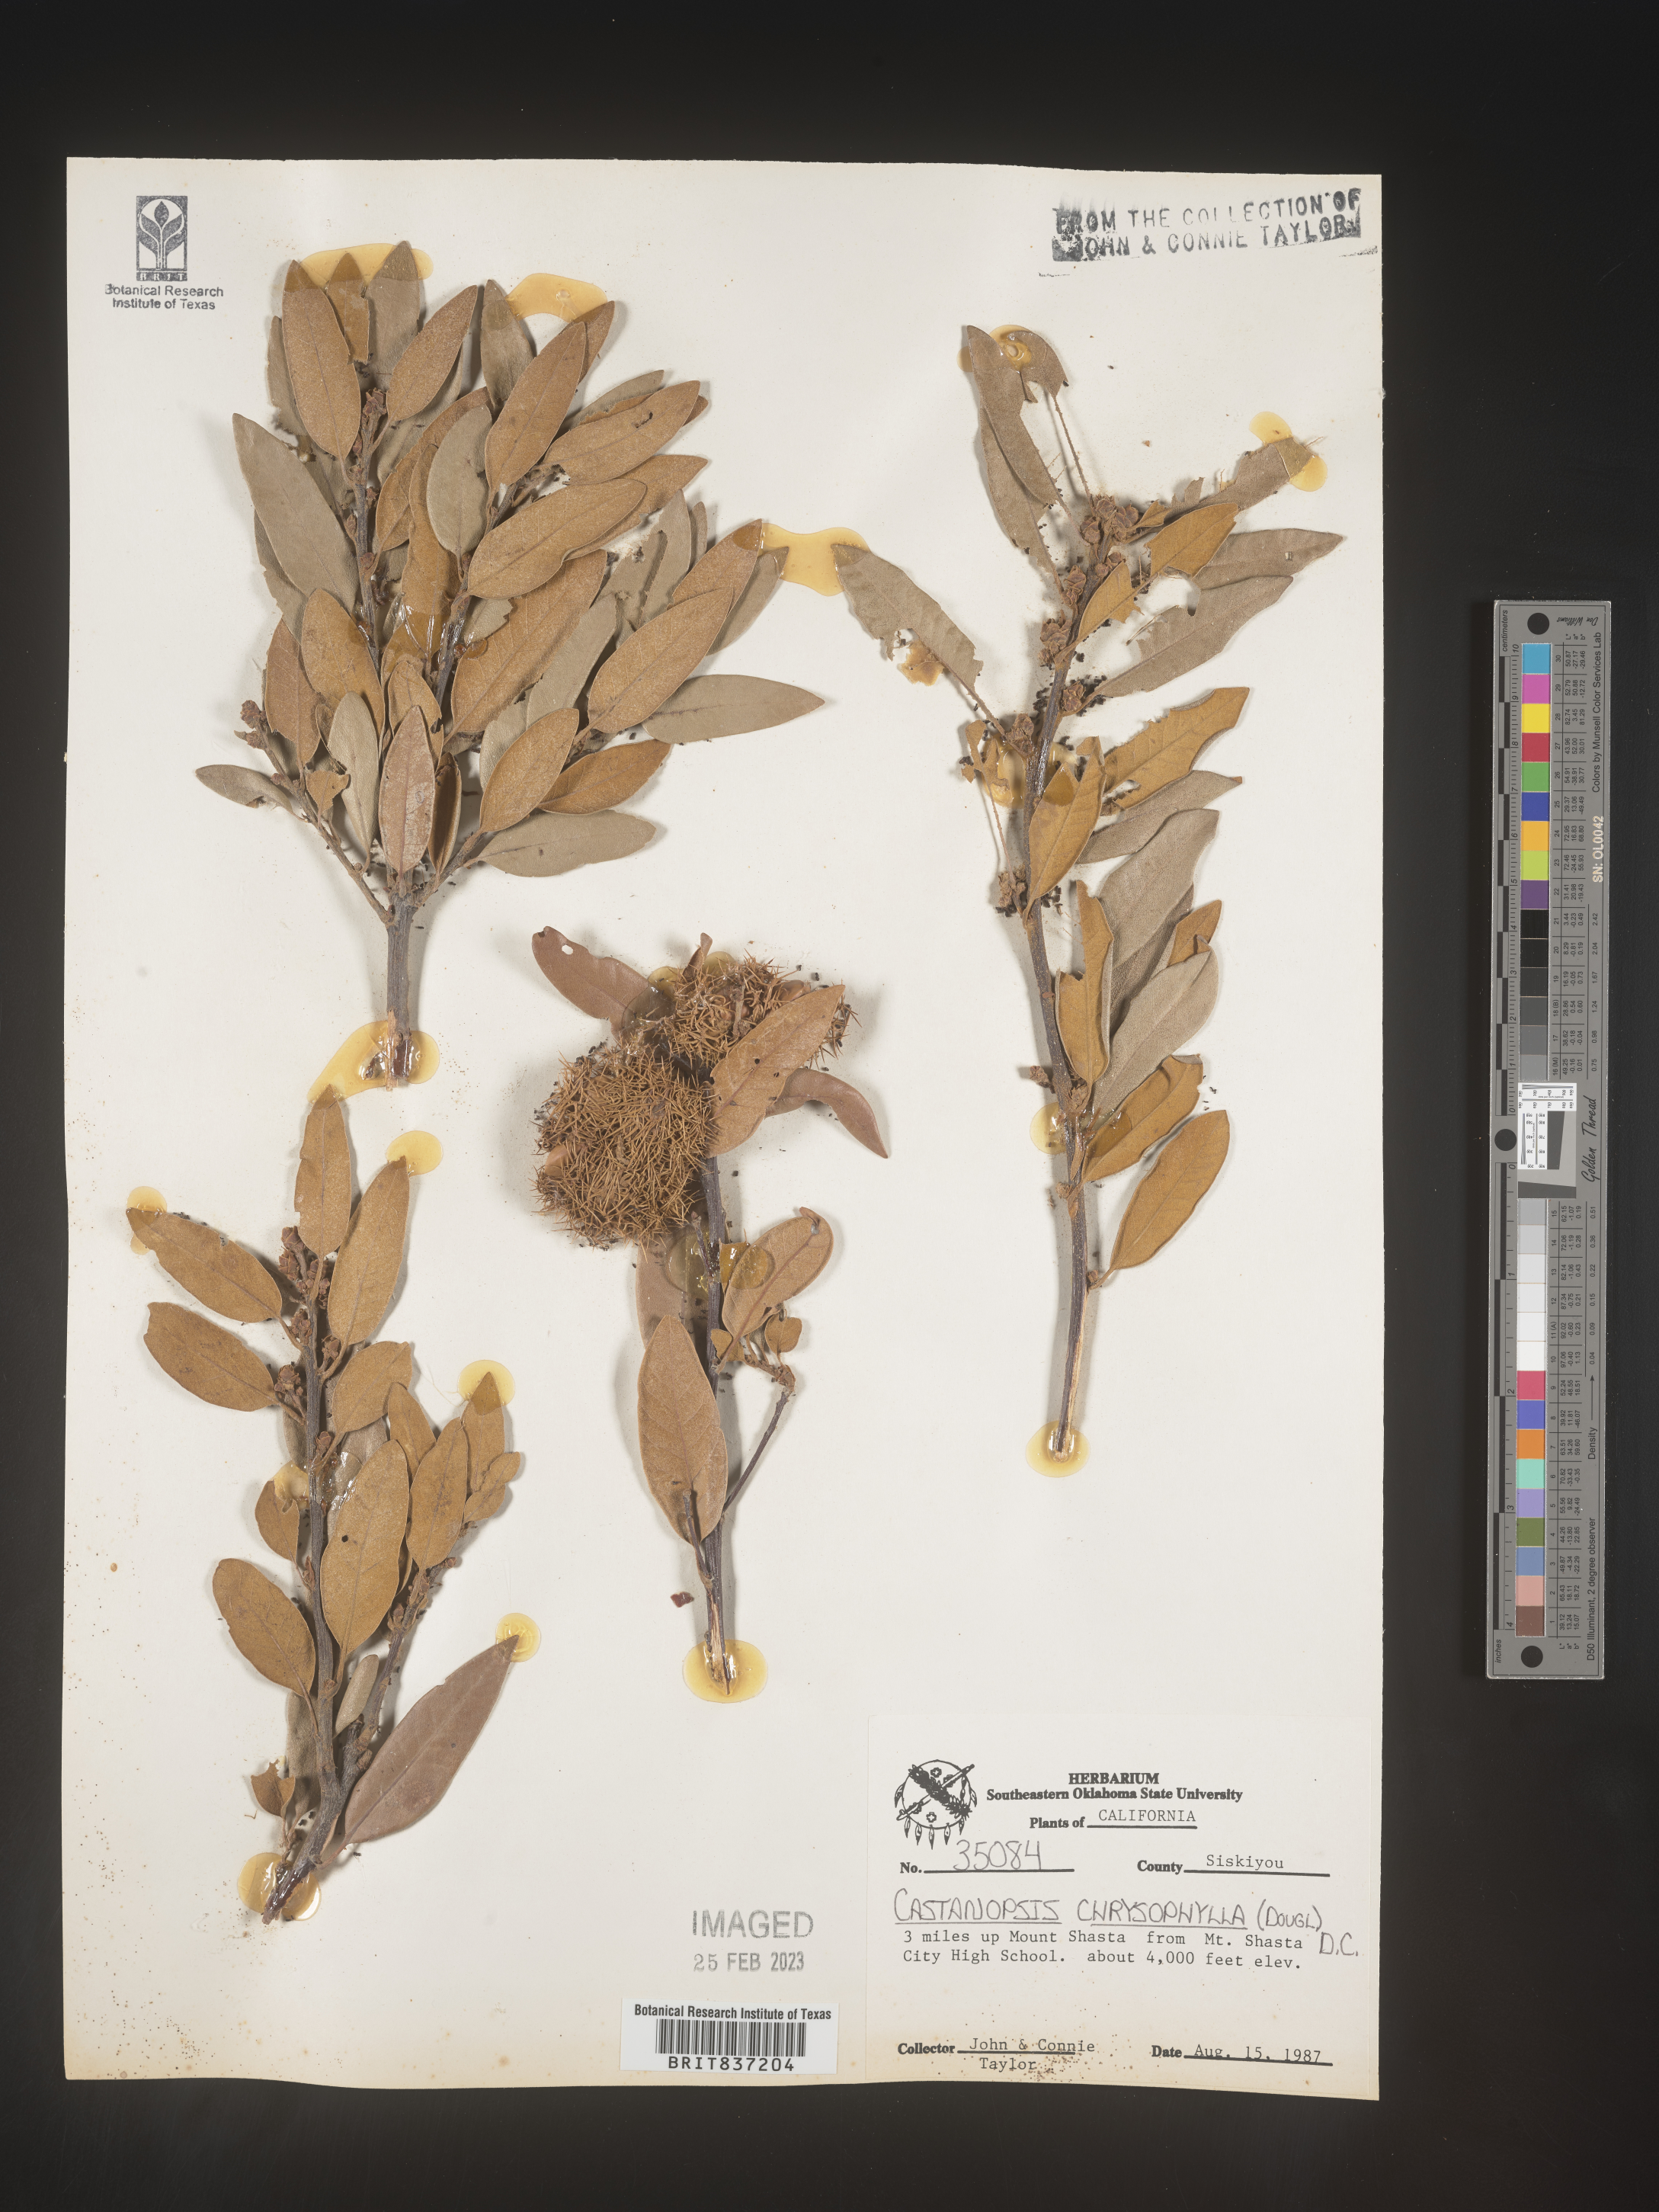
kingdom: Plantae
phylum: Tracheophyta
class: Magnoliopsida
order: Fagales
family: Fagaceae
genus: Castanopsis
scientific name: Castanopsis
